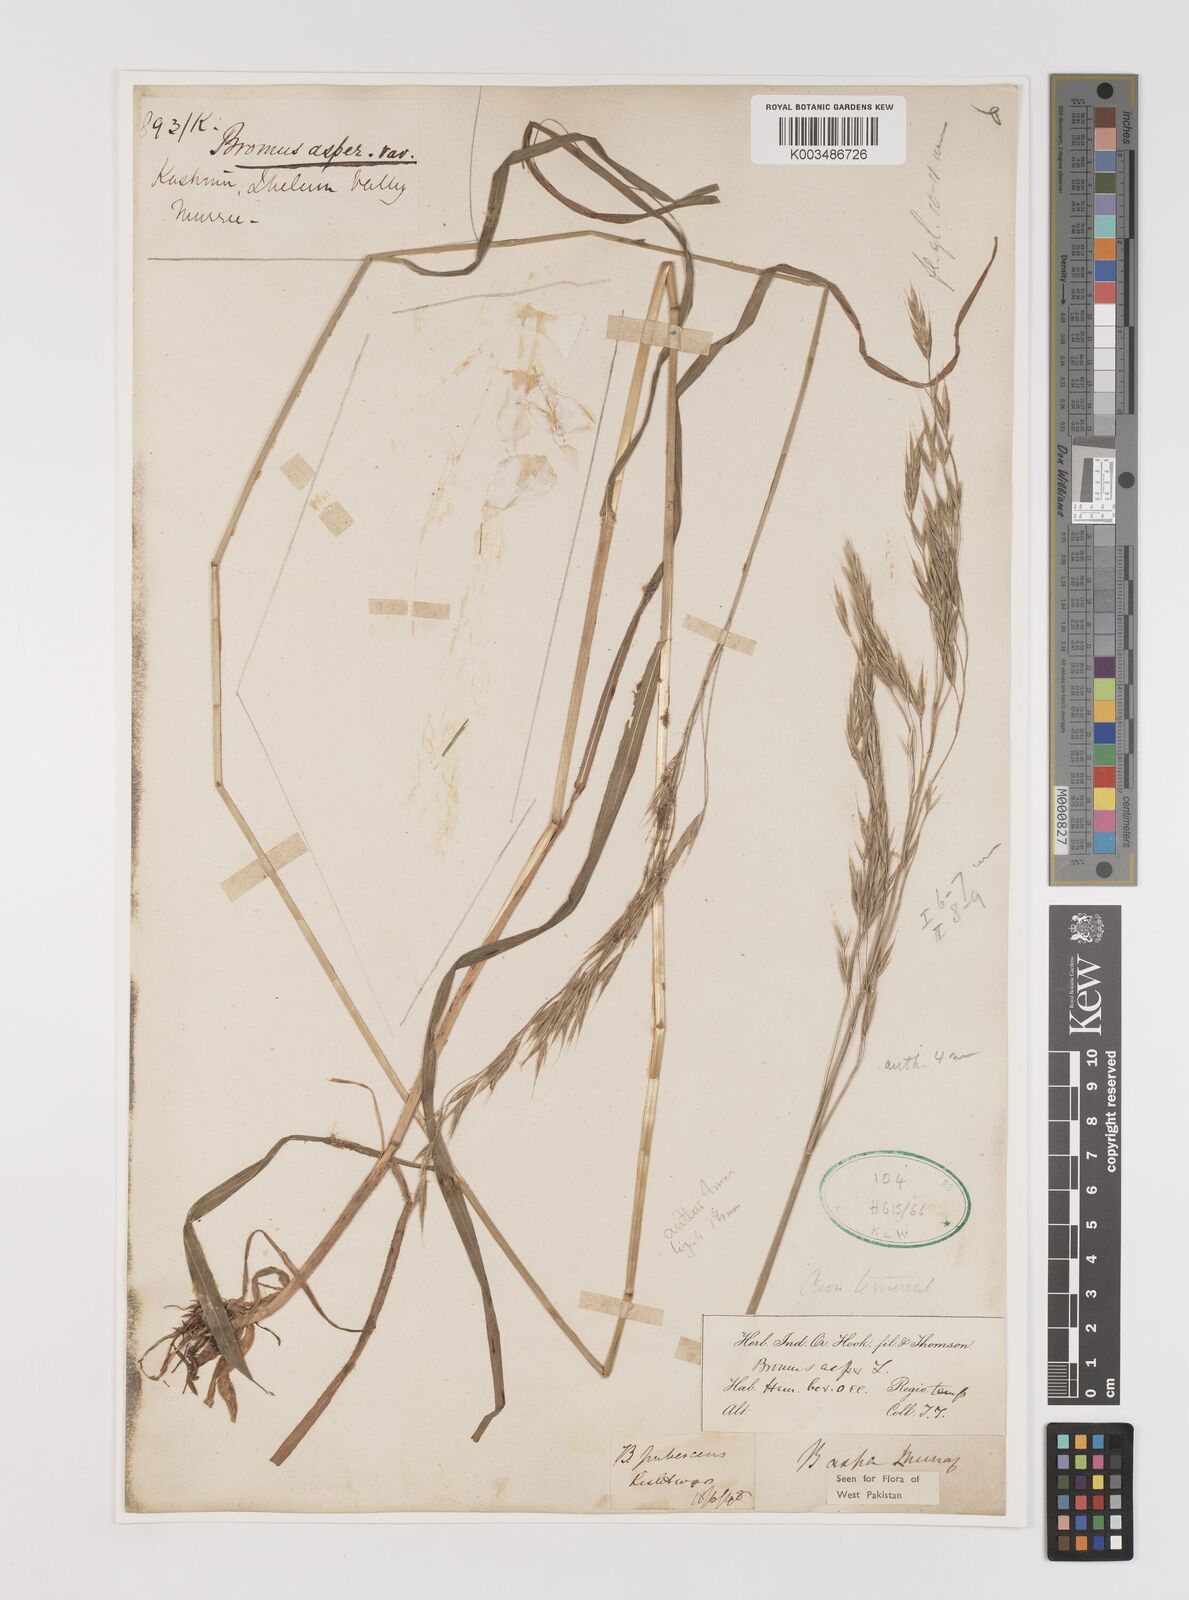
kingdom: Plantae
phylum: Tracheophyta
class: Liliopsida
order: Poales
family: Poaceae
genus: Brachypodium
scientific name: Brachypodium retusum
